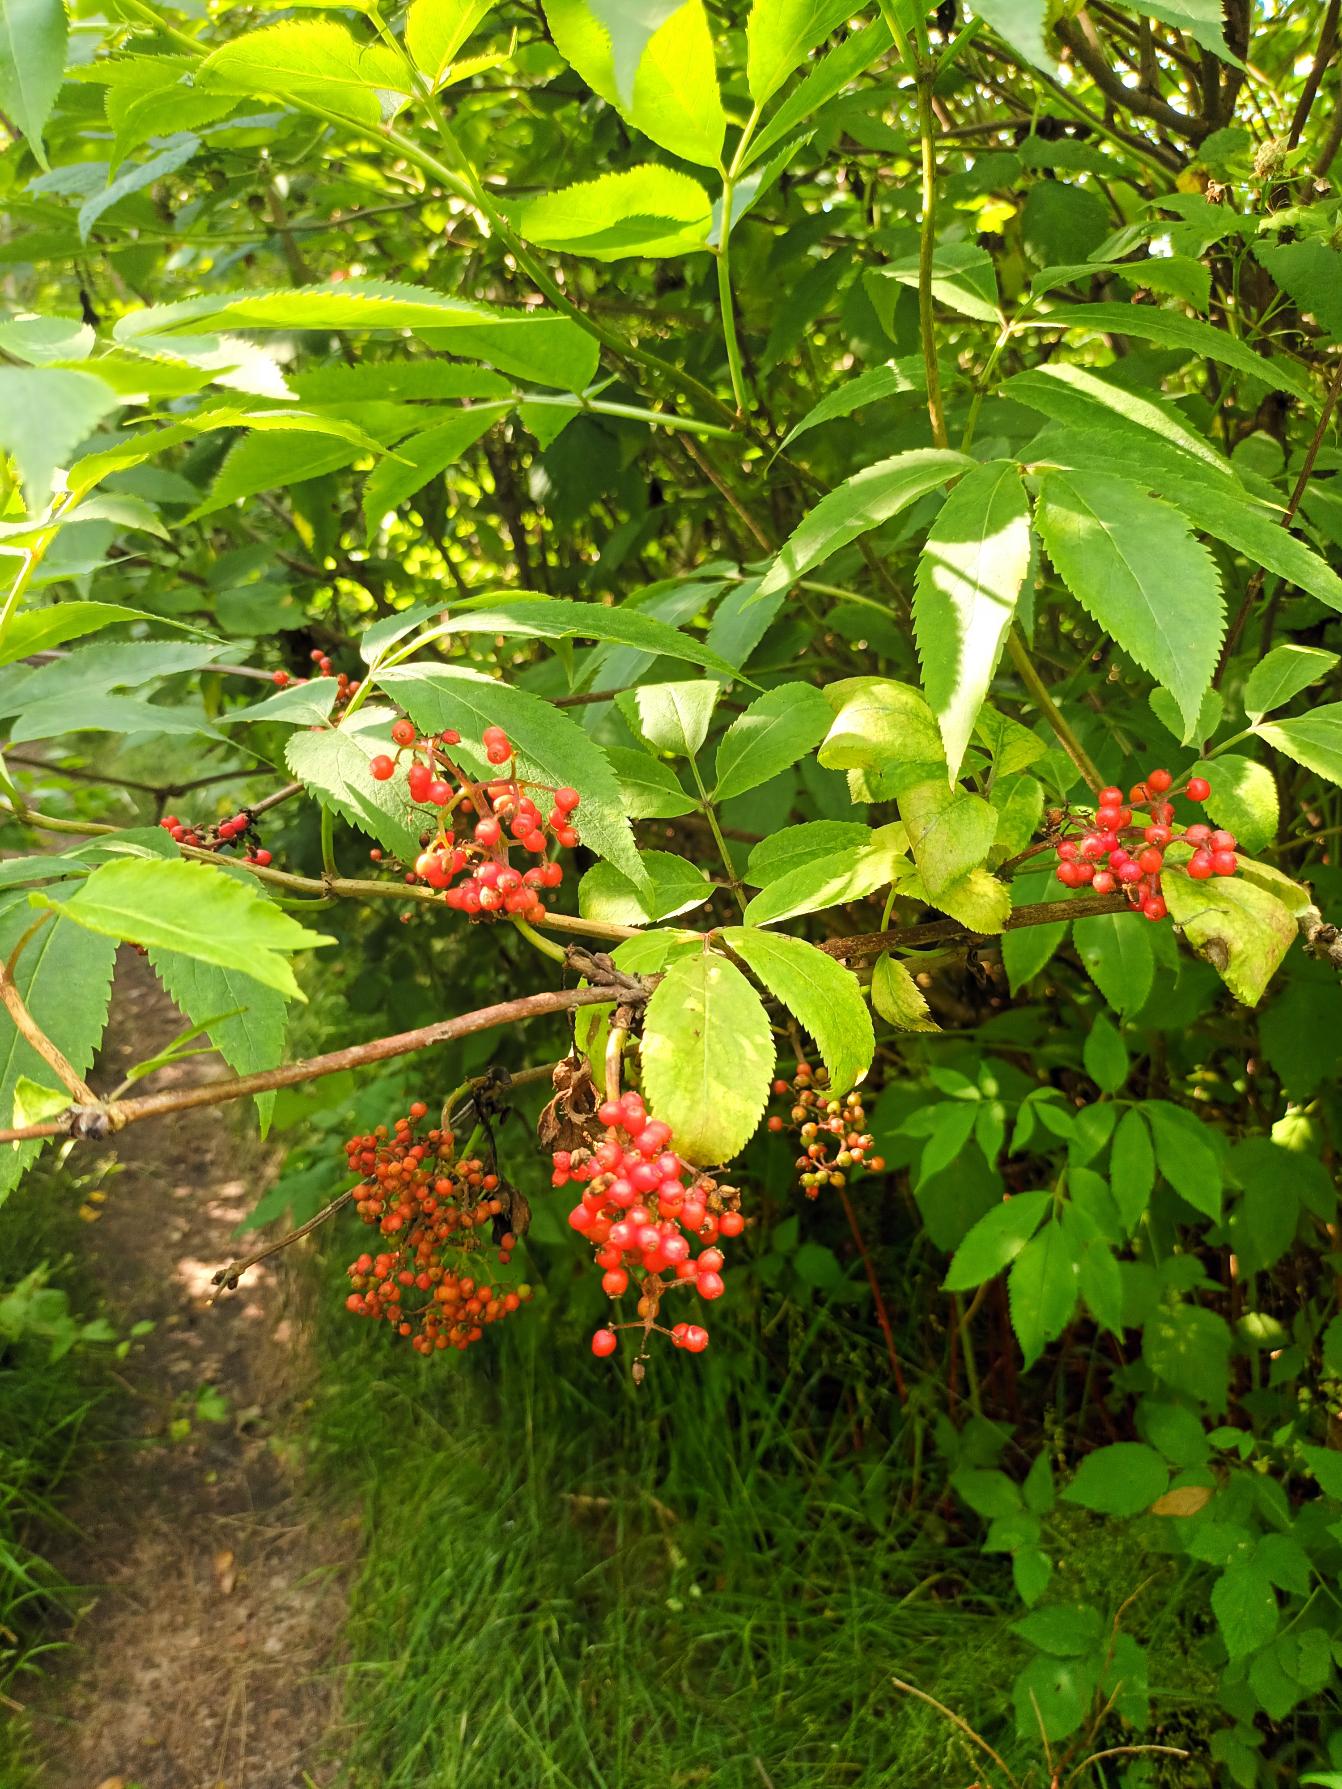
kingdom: Plantae
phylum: Tracheophyta
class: Magnoliopsida
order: Dipsacales
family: Viburnaceae
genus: Sambucus
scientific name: Sambucus racemosa
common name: Drue-hyld
